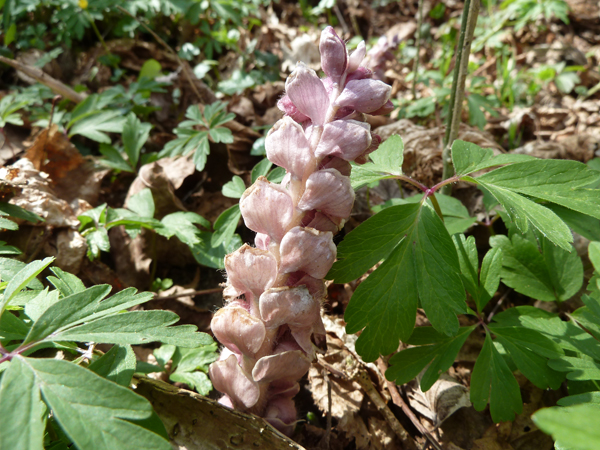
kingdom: Plantae
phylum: Tracheophyta
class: Magnoliopsida
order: Lamiales
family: Orobanchaceae
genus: Lathraea
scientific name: Lathraea squamaria
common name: Toothwort
